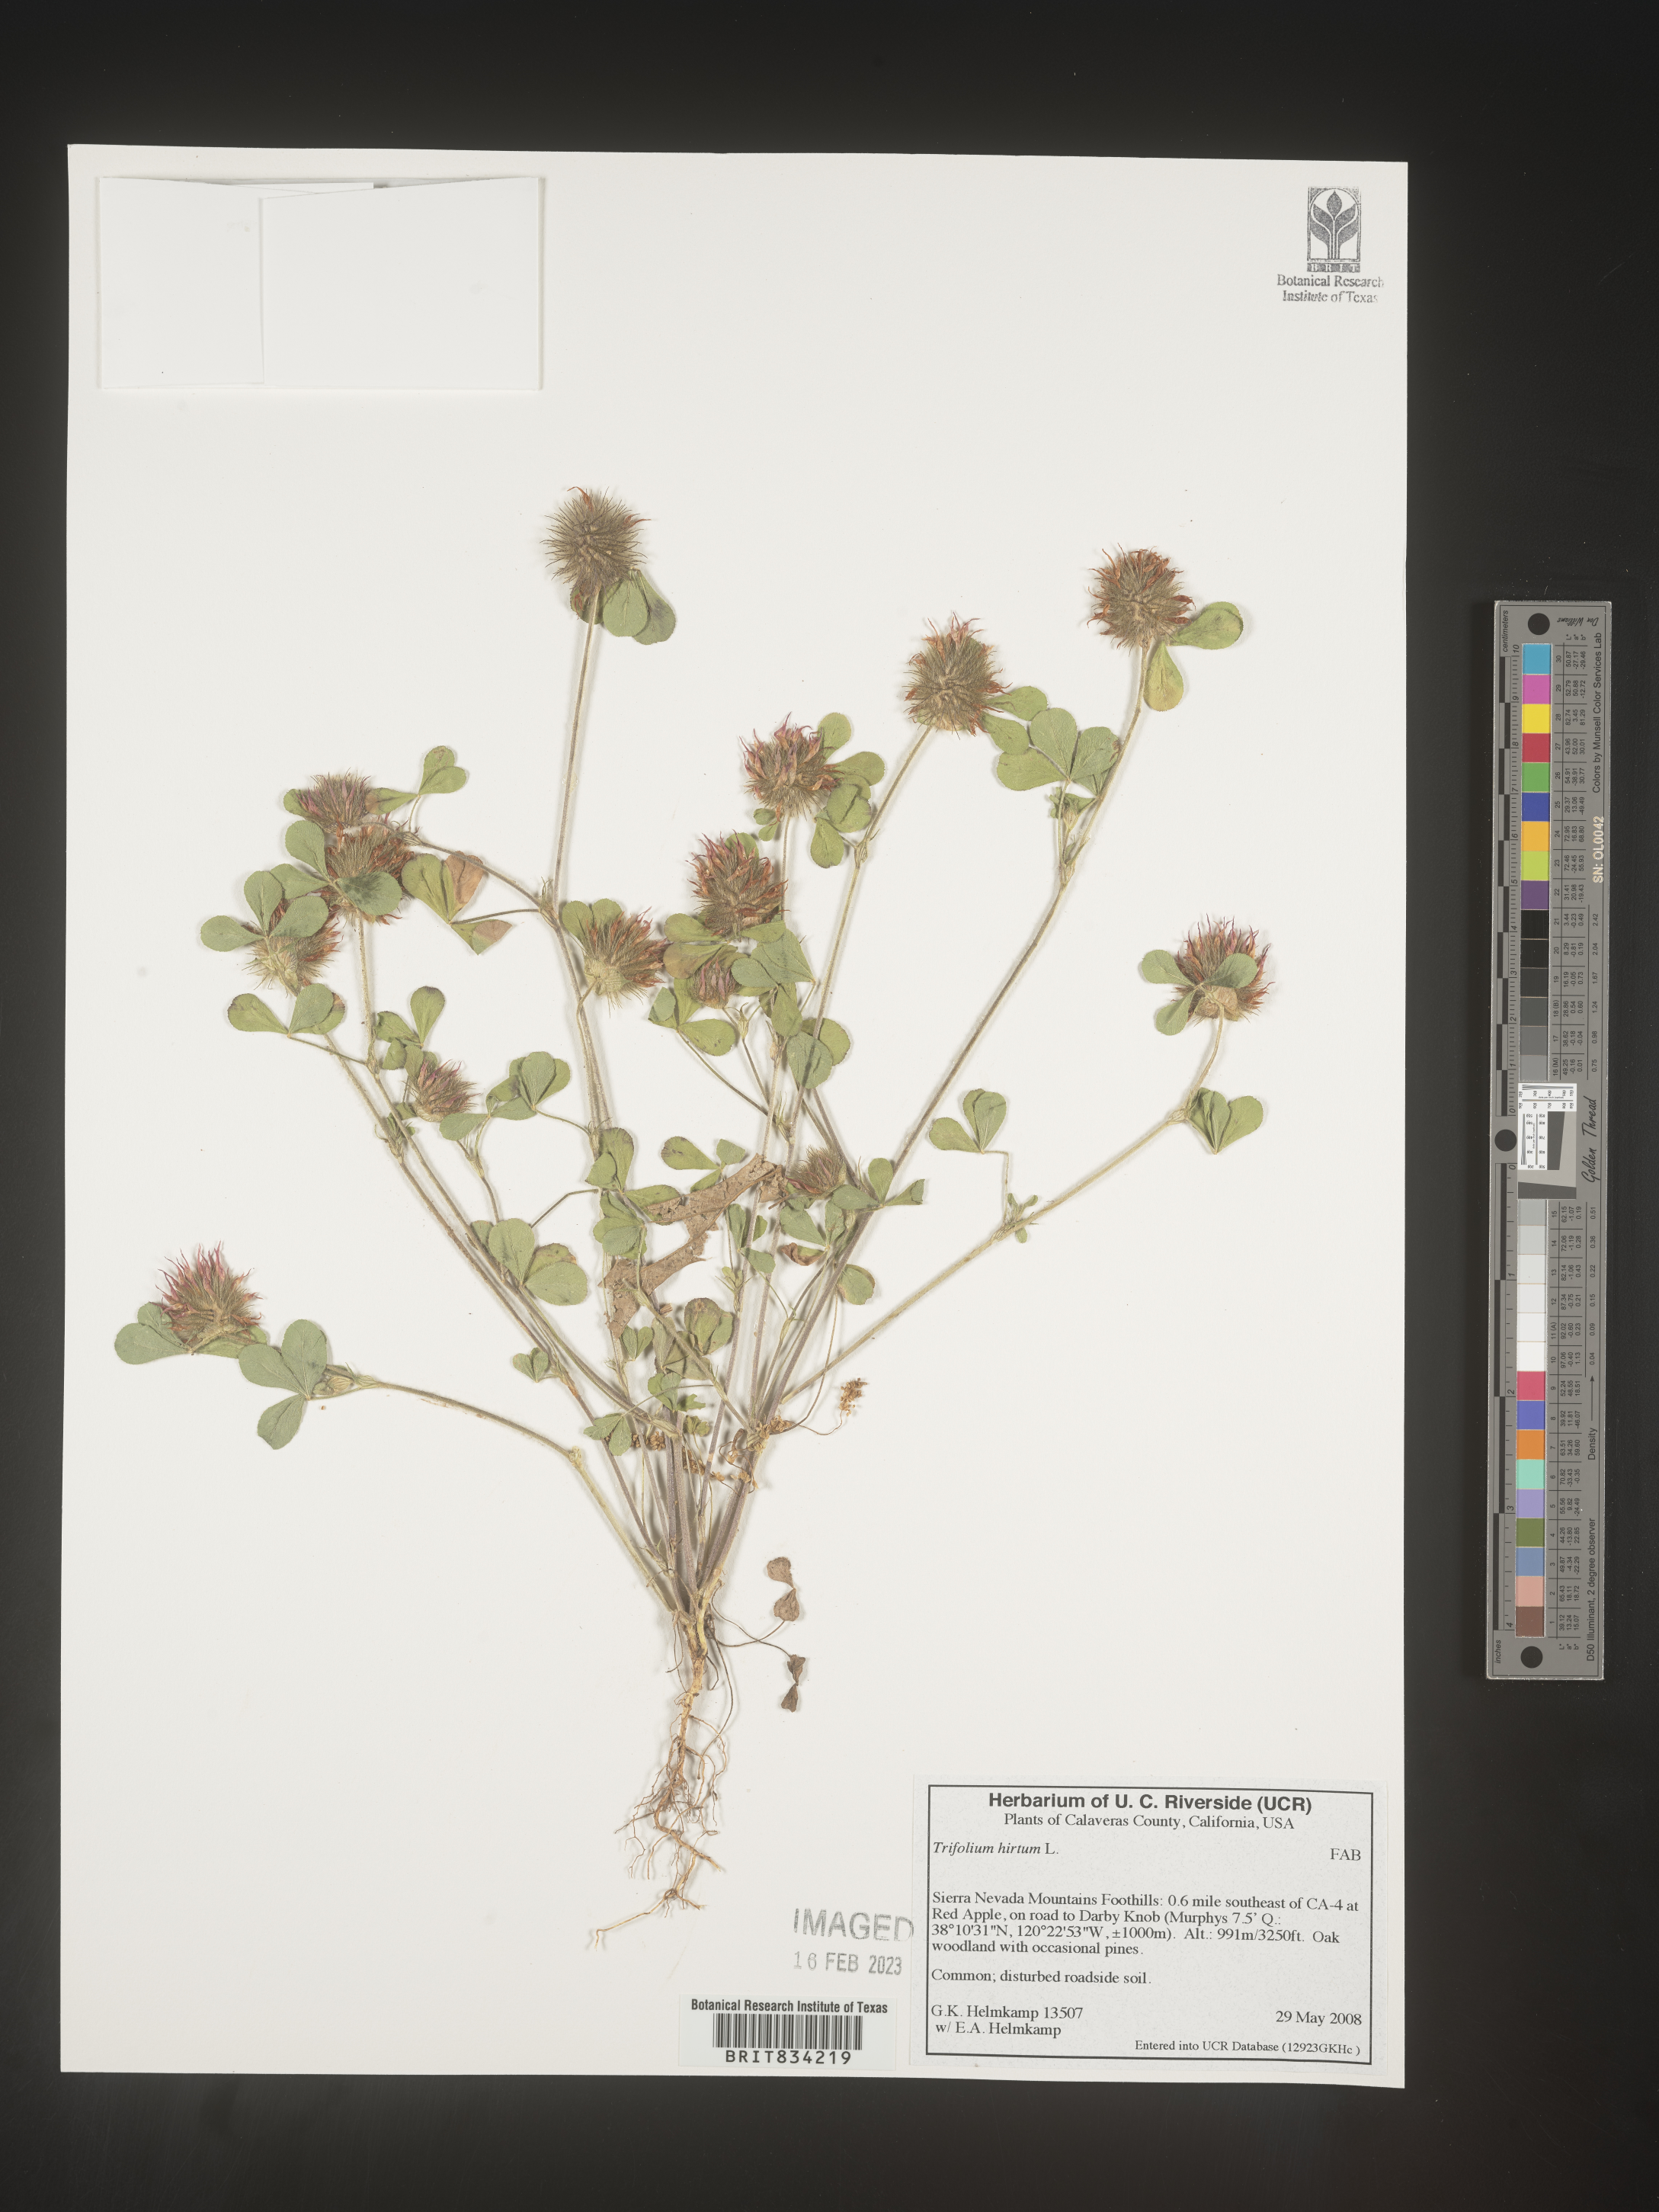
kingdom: Plantae
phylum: Tracheophyta
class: Magnoliopsida
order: Fabales
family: Fabaceae
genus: Trifolium
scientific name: Trifolium
